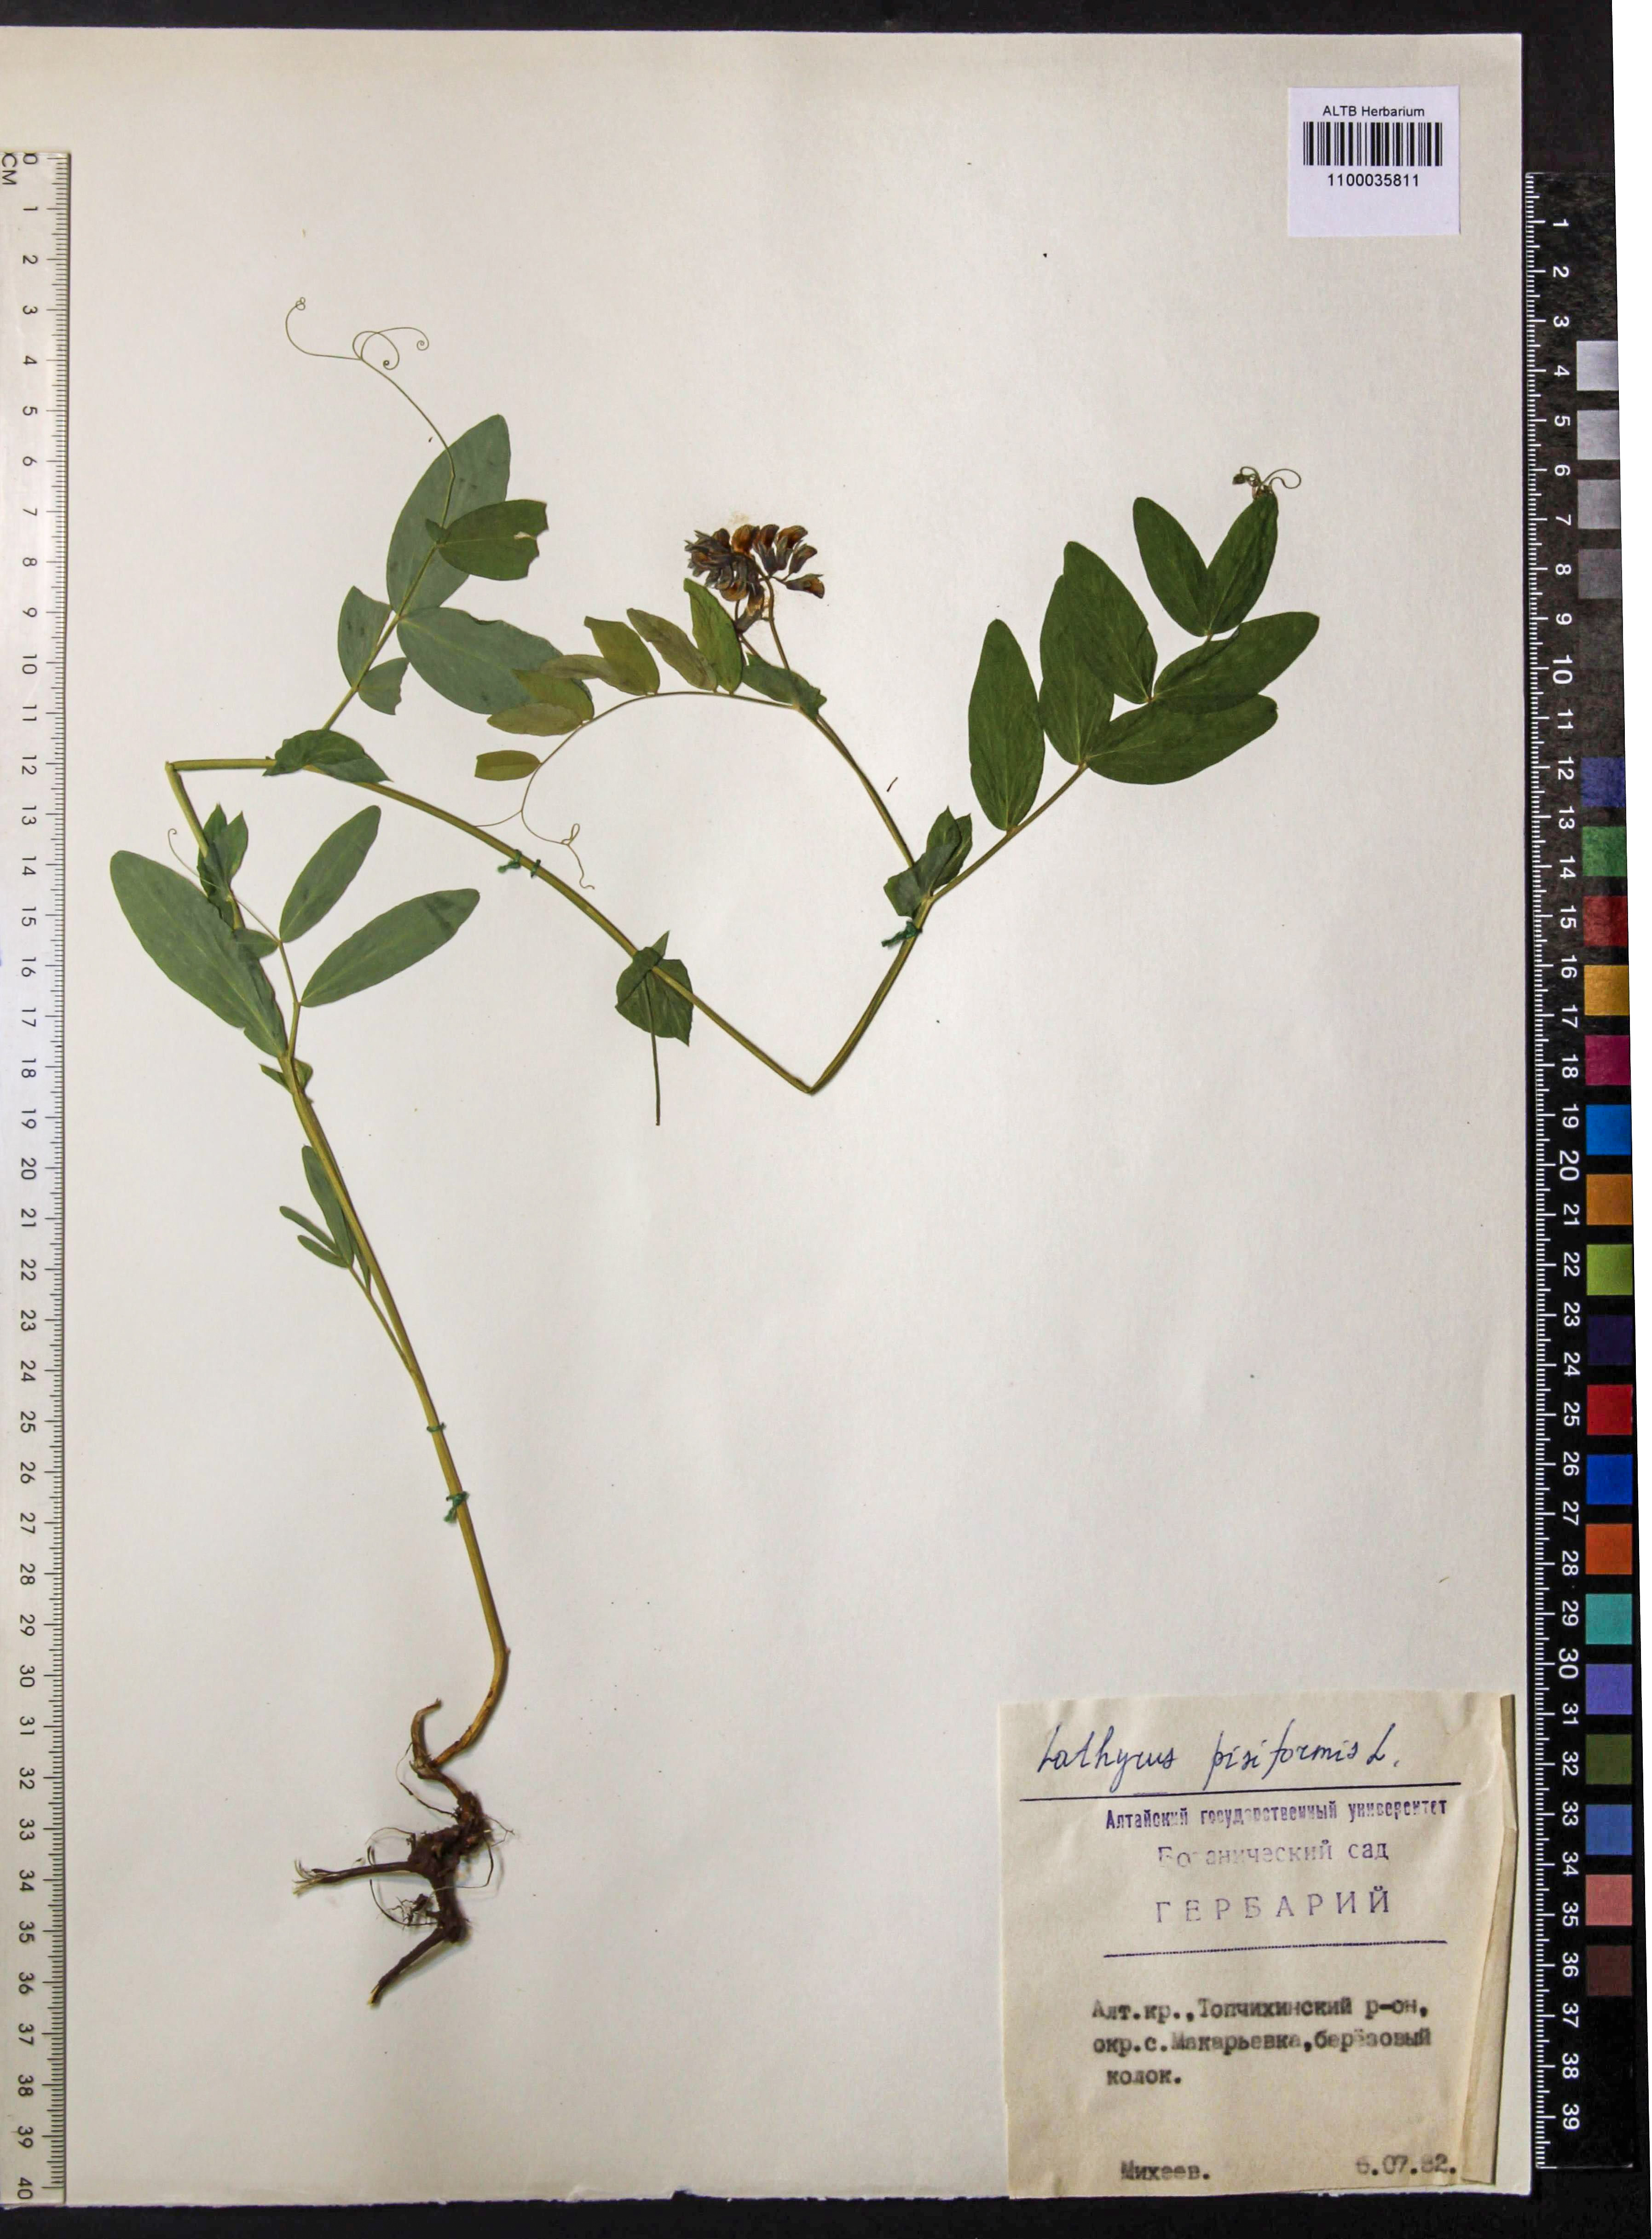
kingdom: Plantae
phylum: Tracheophyta
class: Magnoliopsida
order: Fabales
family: Fabaceae
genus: Lathyrus
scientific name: Lathyrus pisiformis
